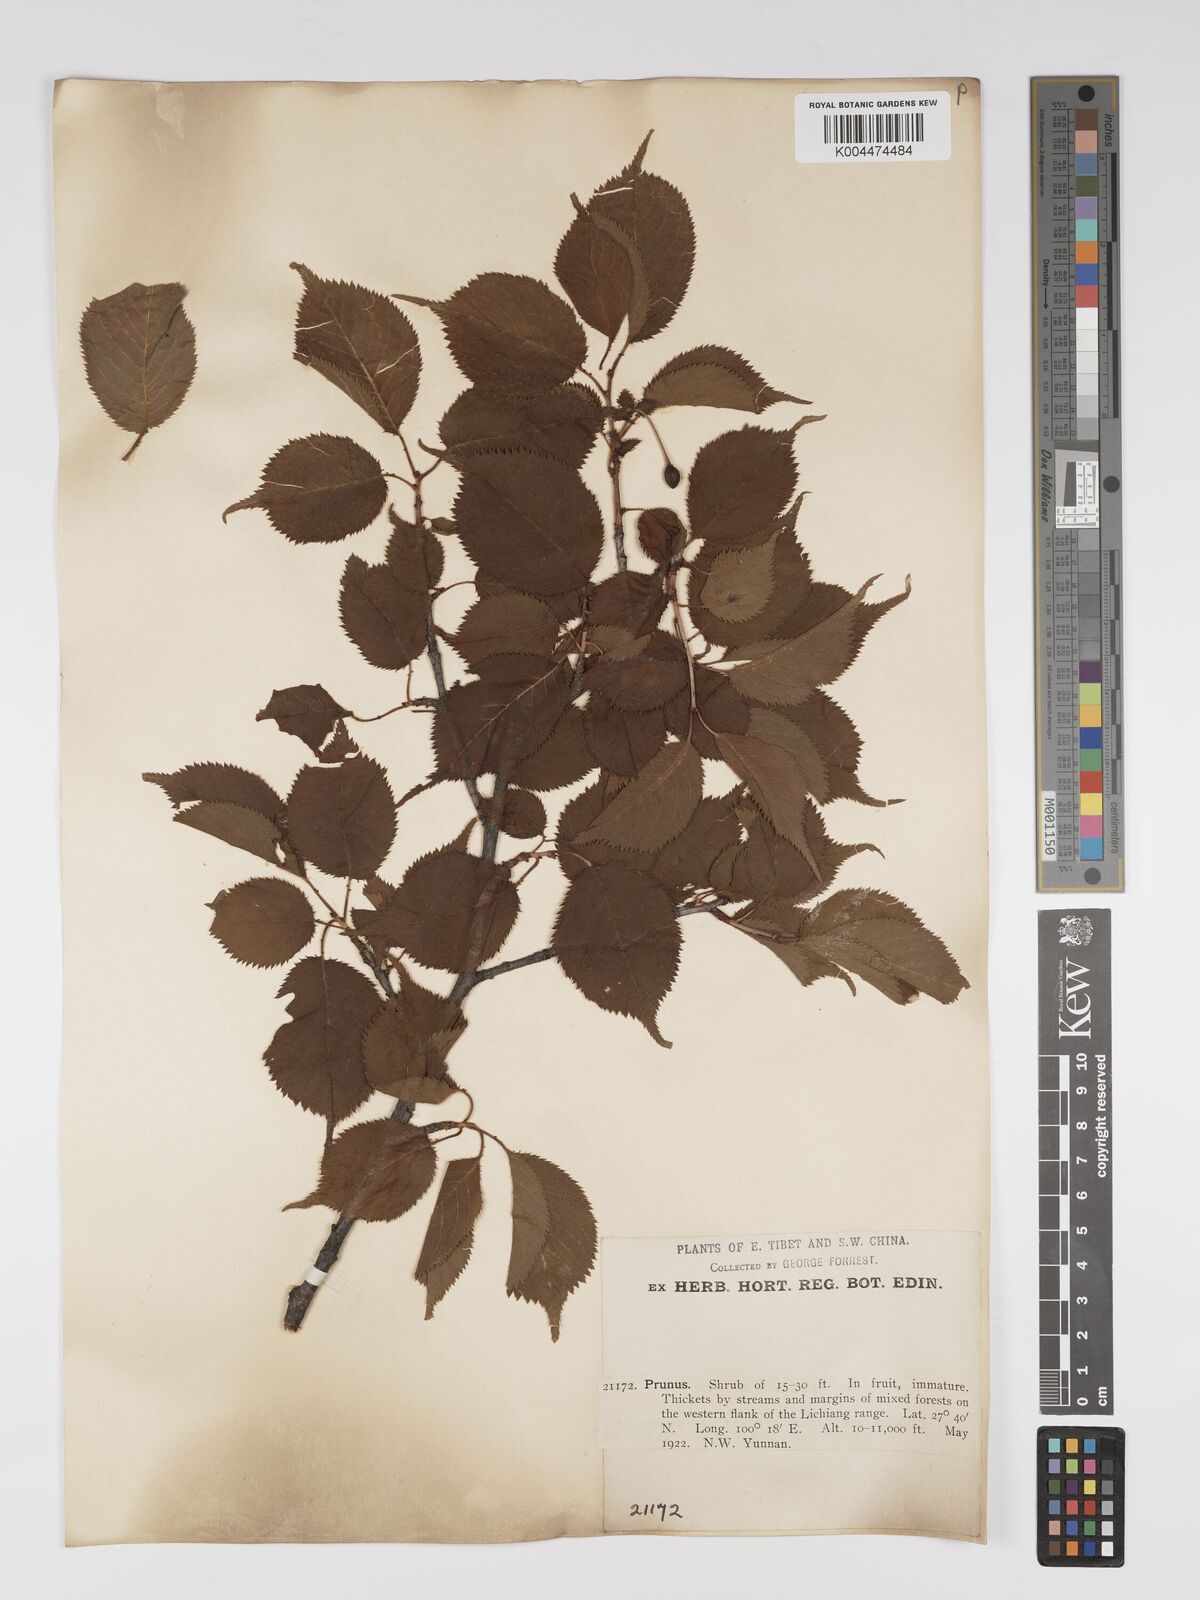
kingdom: Plantae
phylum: Tracheophyta
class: Magnoliopsida
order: Rosales
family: Rosaceae
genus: Prunus
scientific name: Prunus
